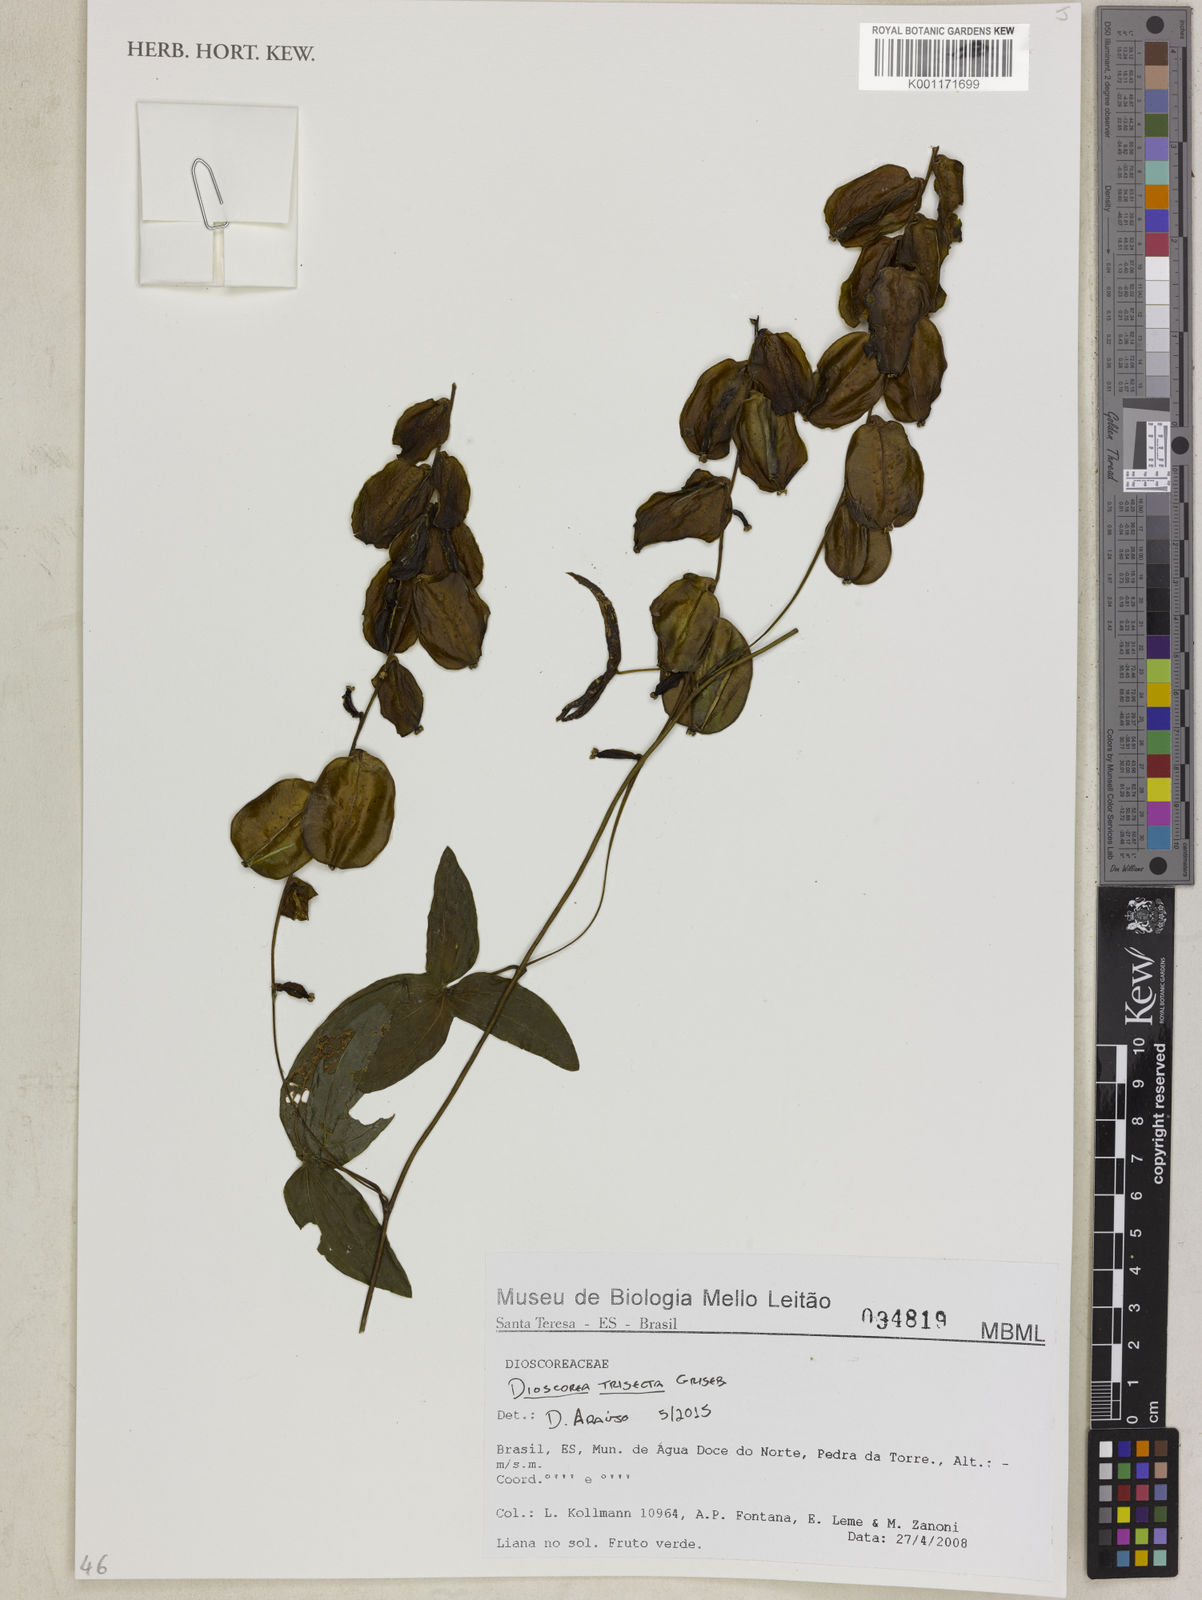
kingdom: Plantae
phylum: Tracheophyta
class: Liliopsida
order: Dioscoreales
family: Dioscoreaceae
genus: Dioscorea
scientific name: Dioscorea trisecta
